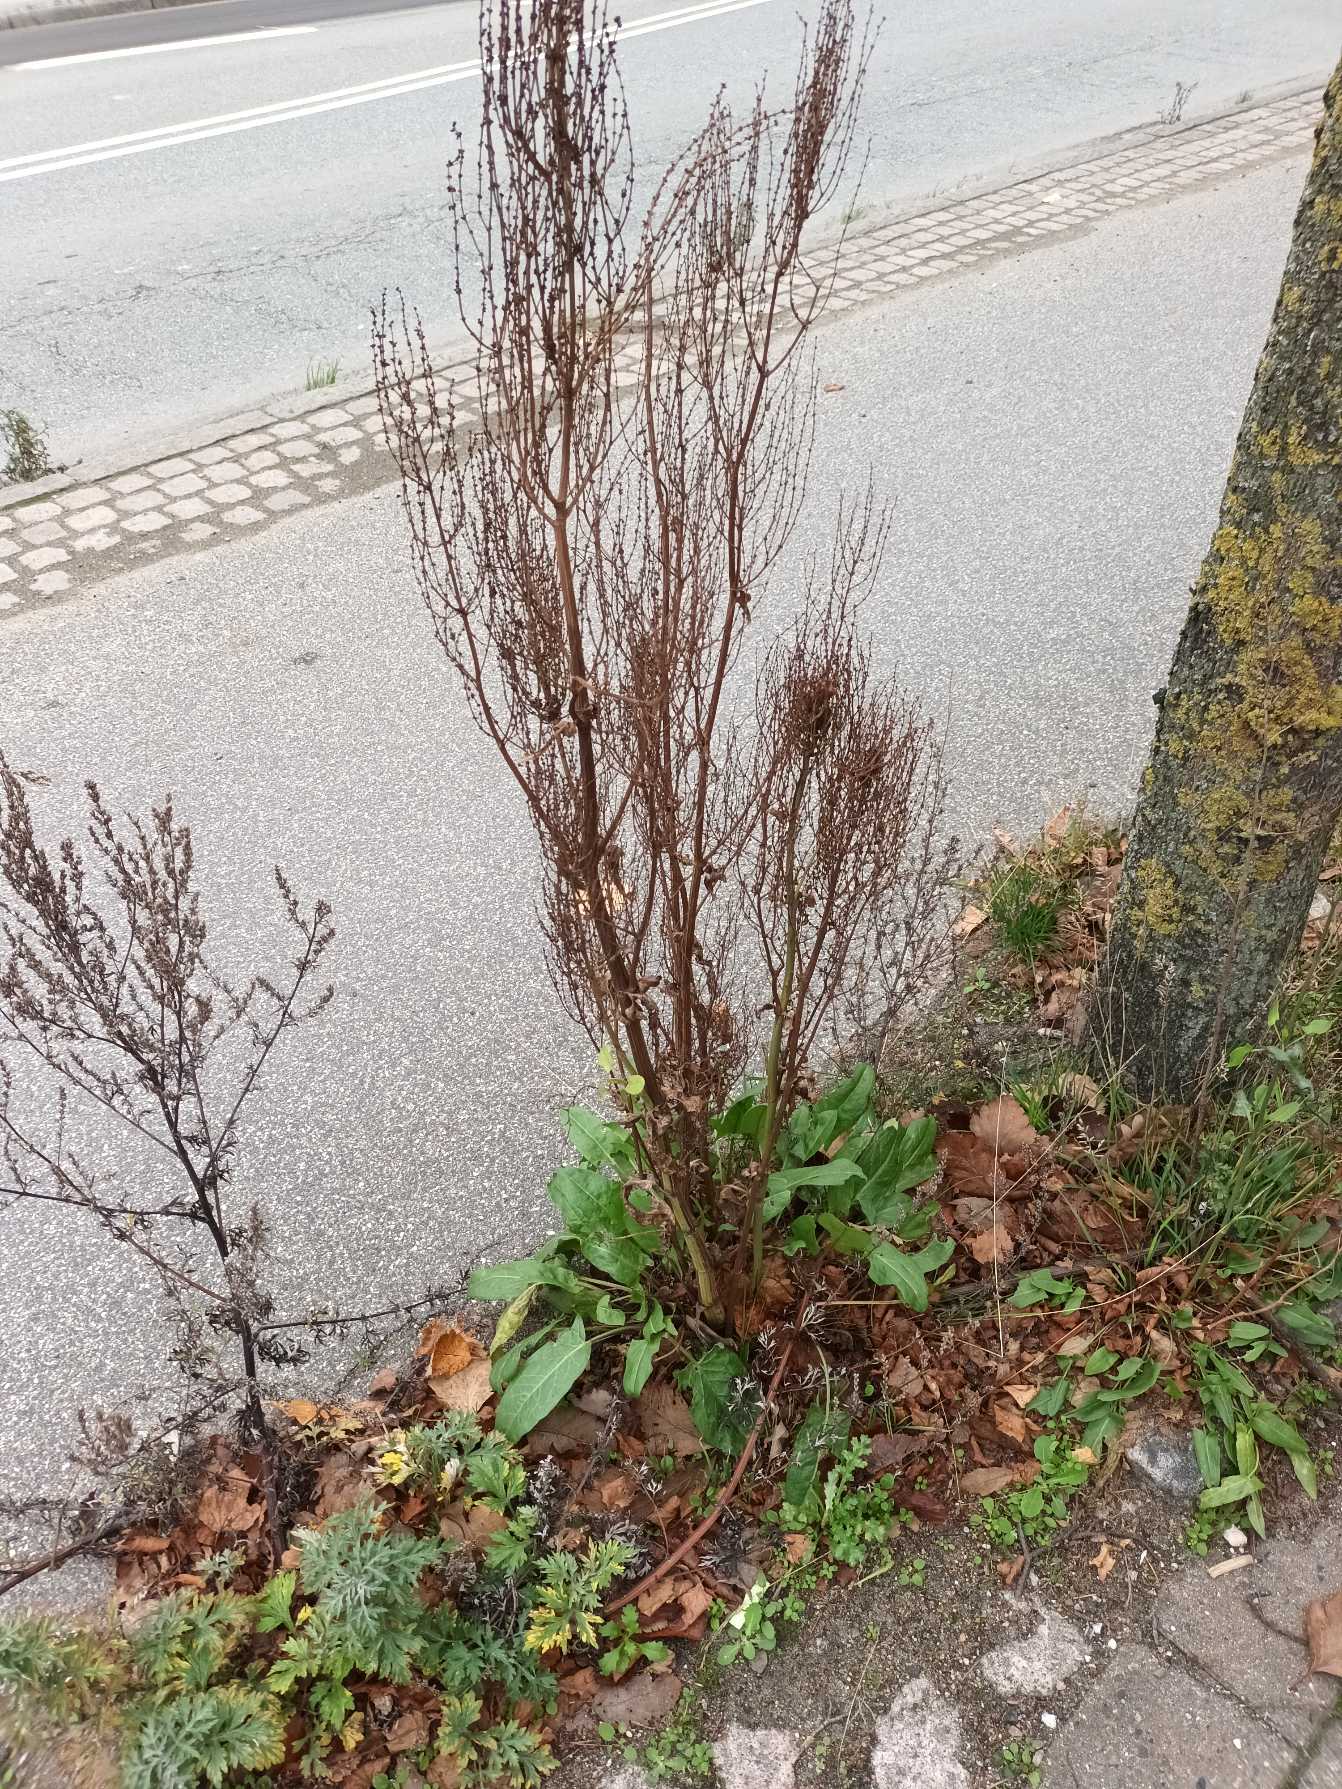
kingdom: Plantae
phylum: Tracheophyta
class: Magnoliopsida
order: Caryophyllales
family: Polygonaceae
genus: Rumex
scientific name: Rumex thyrsiflorus
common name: Dusk-syre
